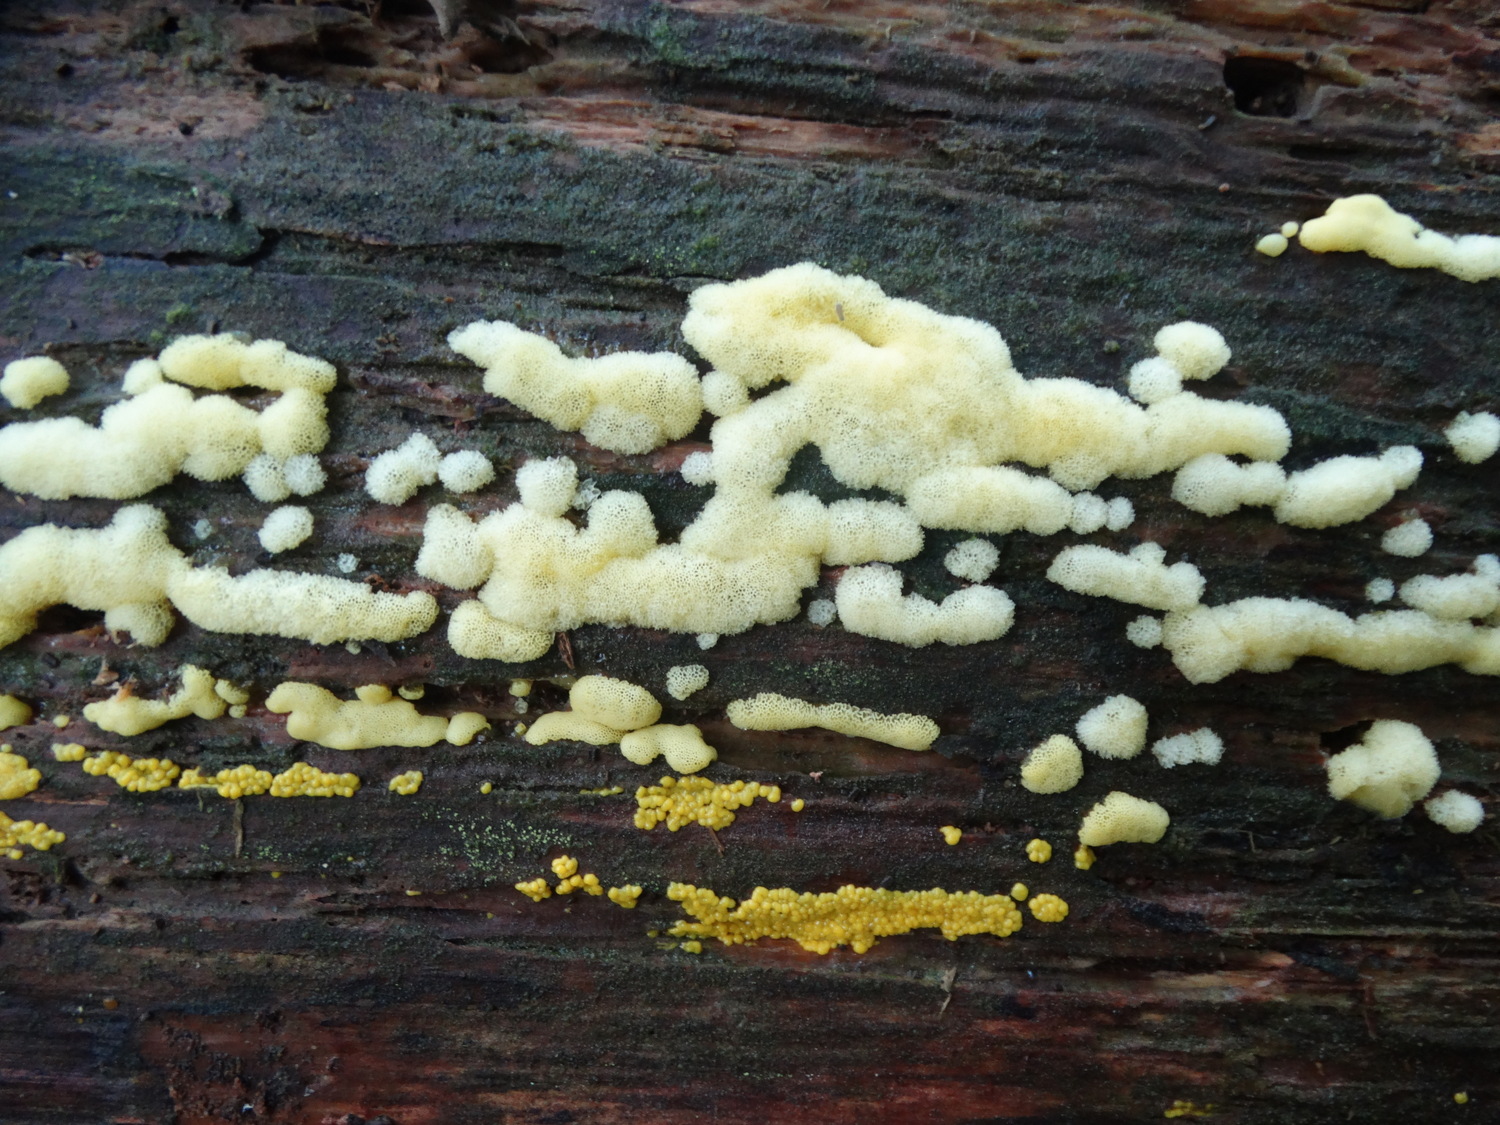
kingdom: Protozoa
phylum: Mycetozoa
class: Protosteliomycetes
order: Ceratiomyxales
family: Ceratiomyxaceae
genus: Ceratiomyxa
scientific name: Ceratiomyxa fruticulosa
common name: Honeycomb coral slime mold
